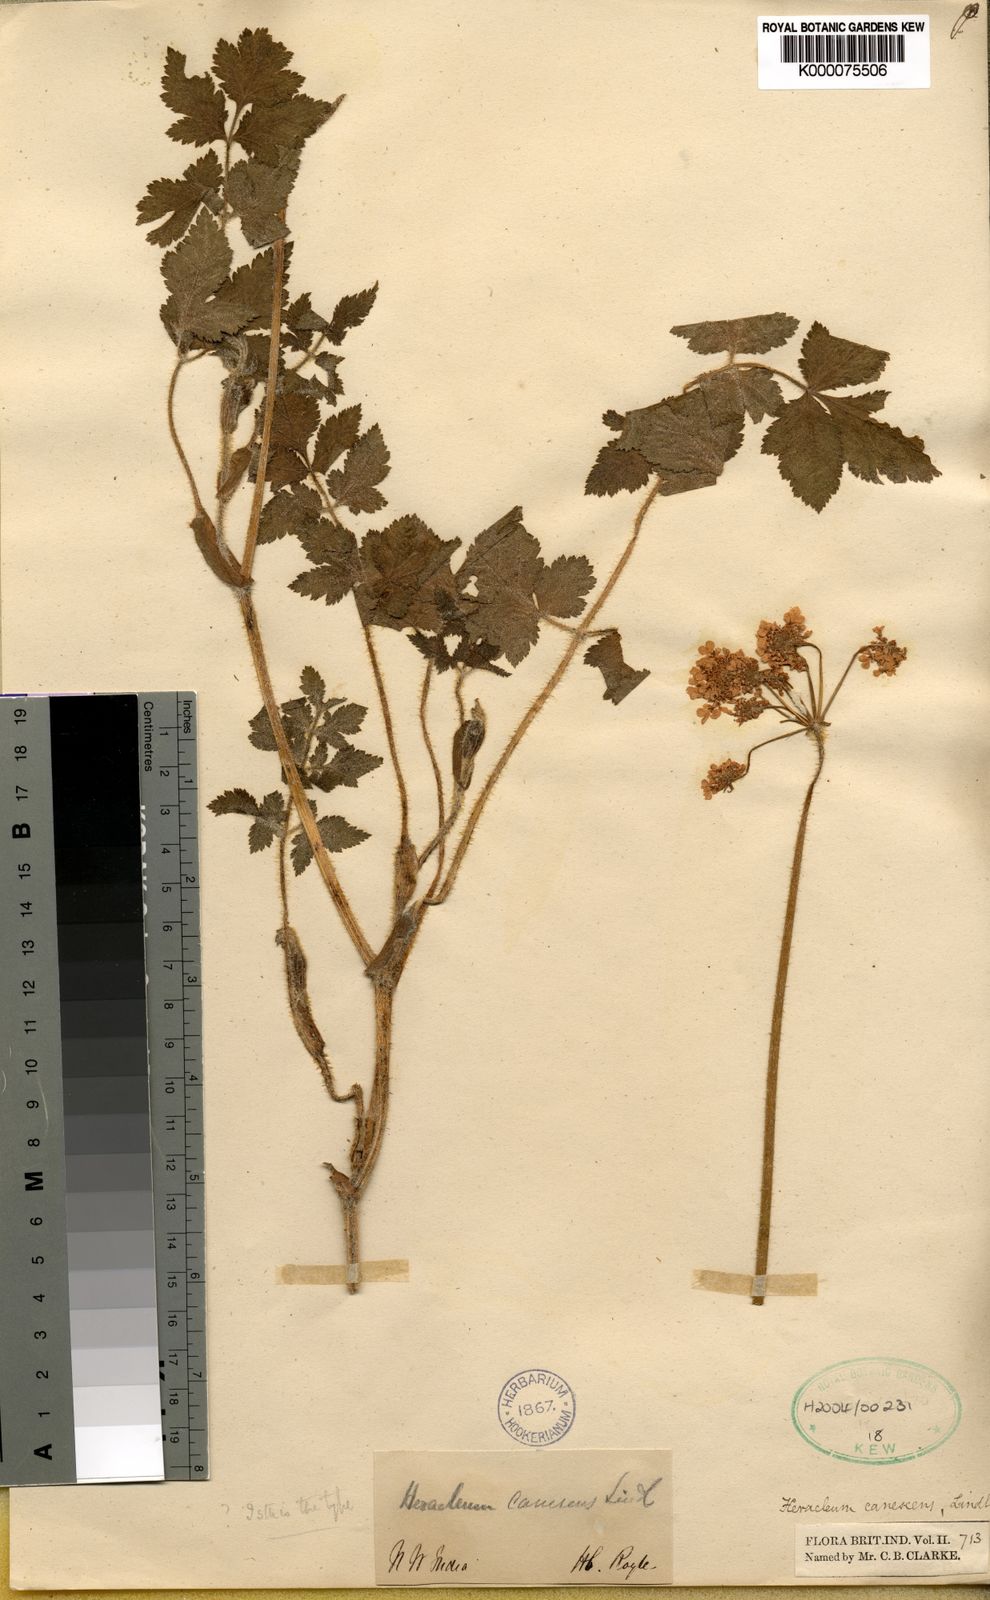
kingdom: Plantae
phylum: Tracheophyta
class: Magnoliopsida
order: Apiales
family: Apiaceae
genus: Tetrataenium
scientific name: Tetrataenium canescens
